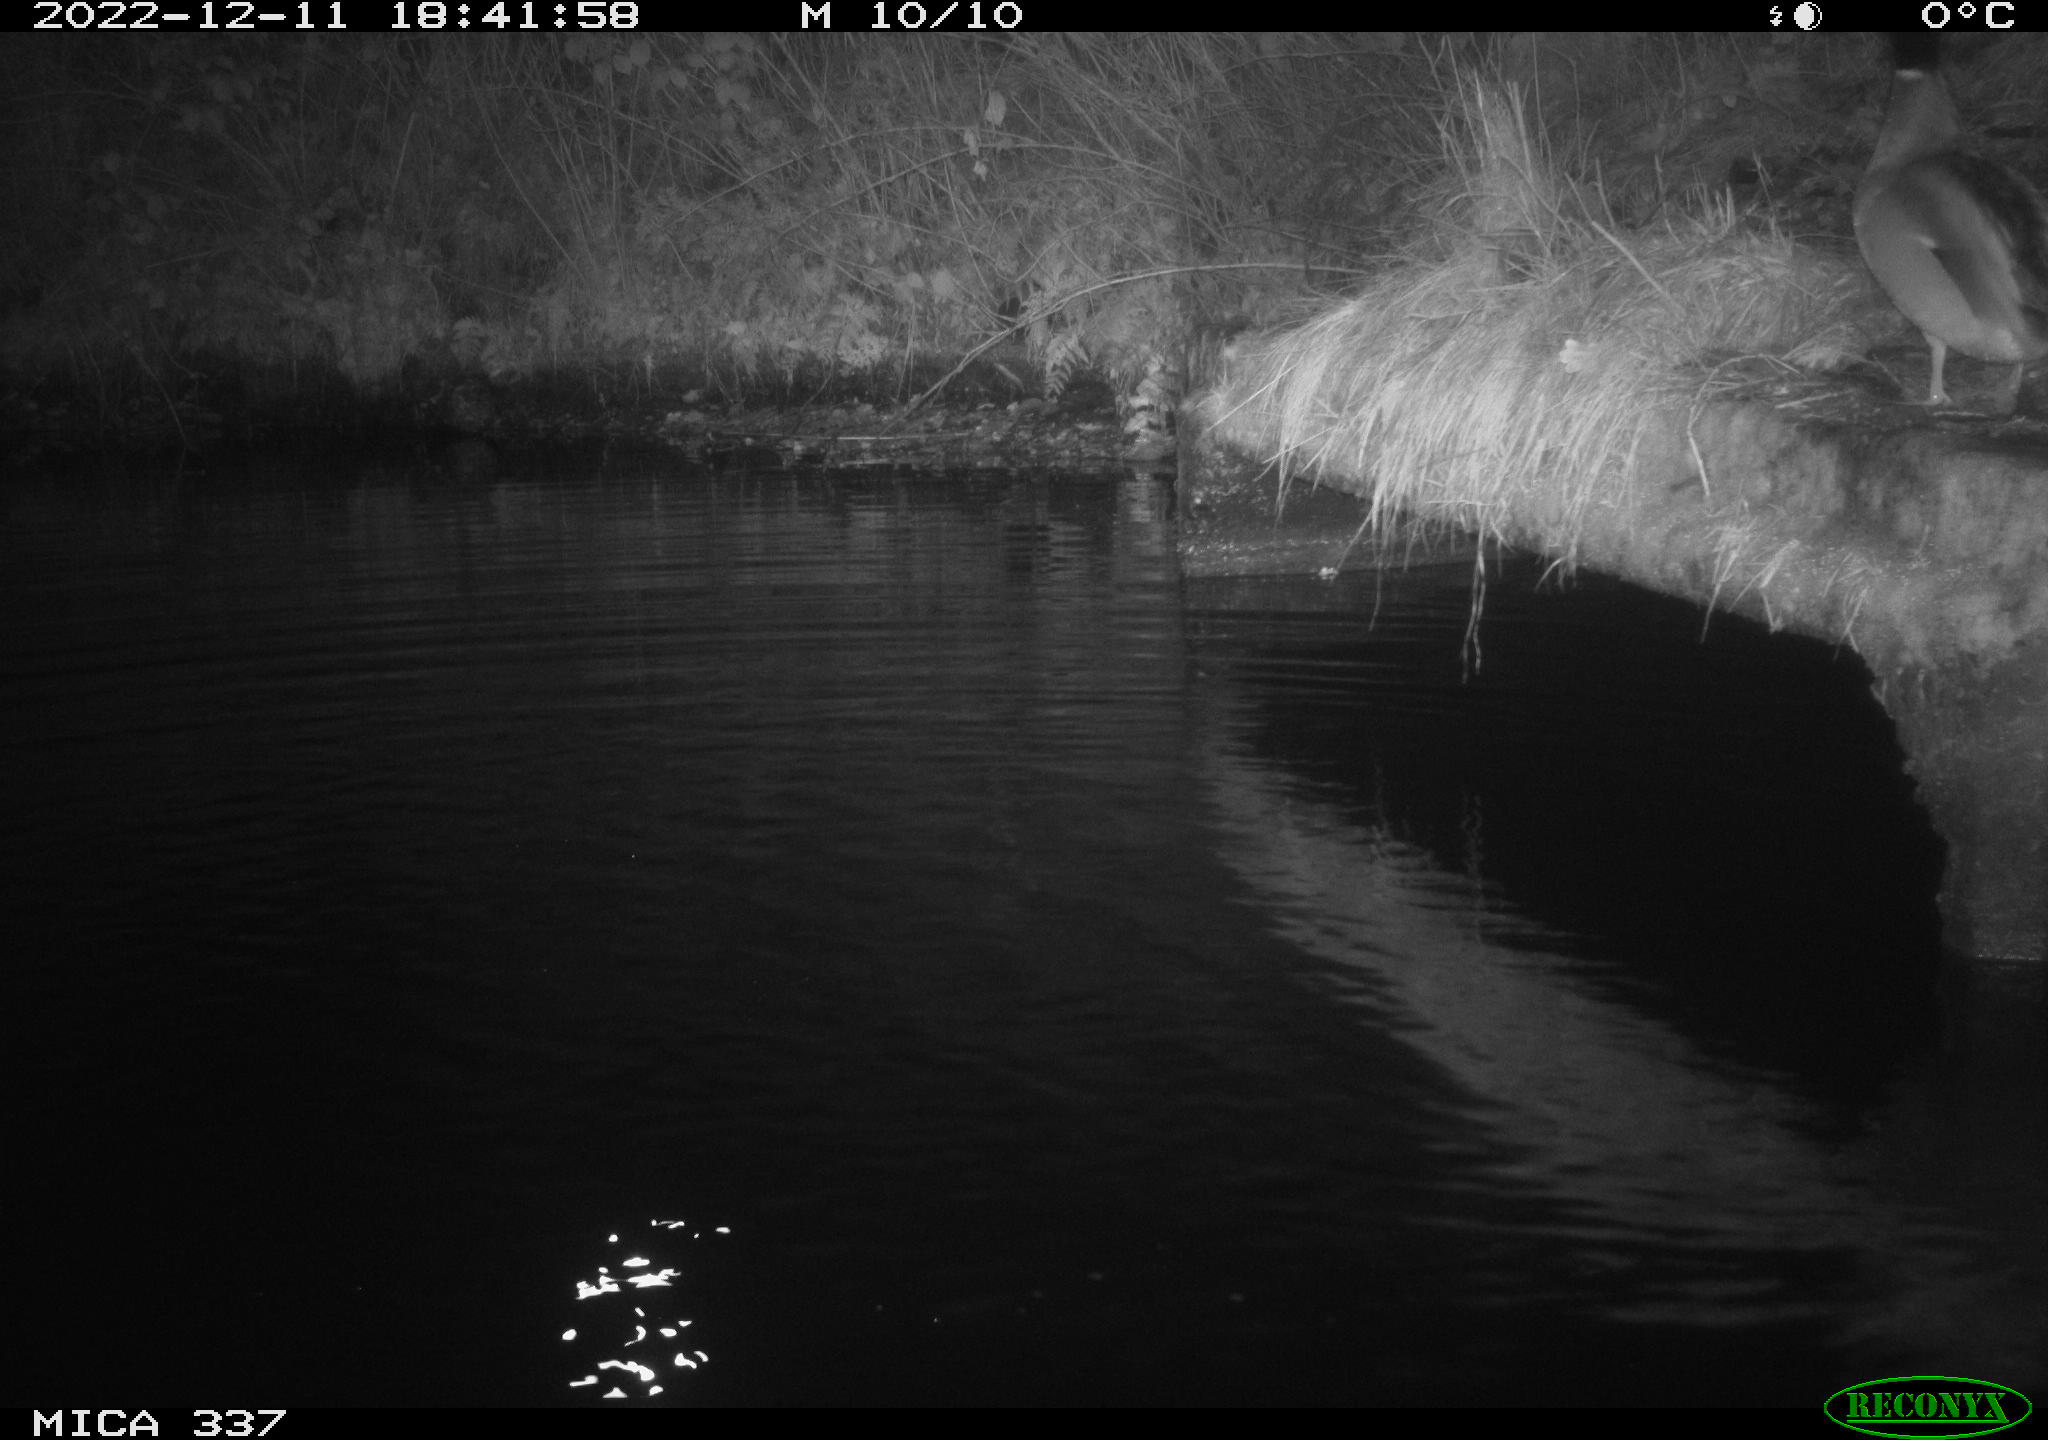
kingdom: Animalia
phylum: Chordata
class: Aves
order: Anseriformes
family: Anatidae
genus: Anas
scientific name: Anas
